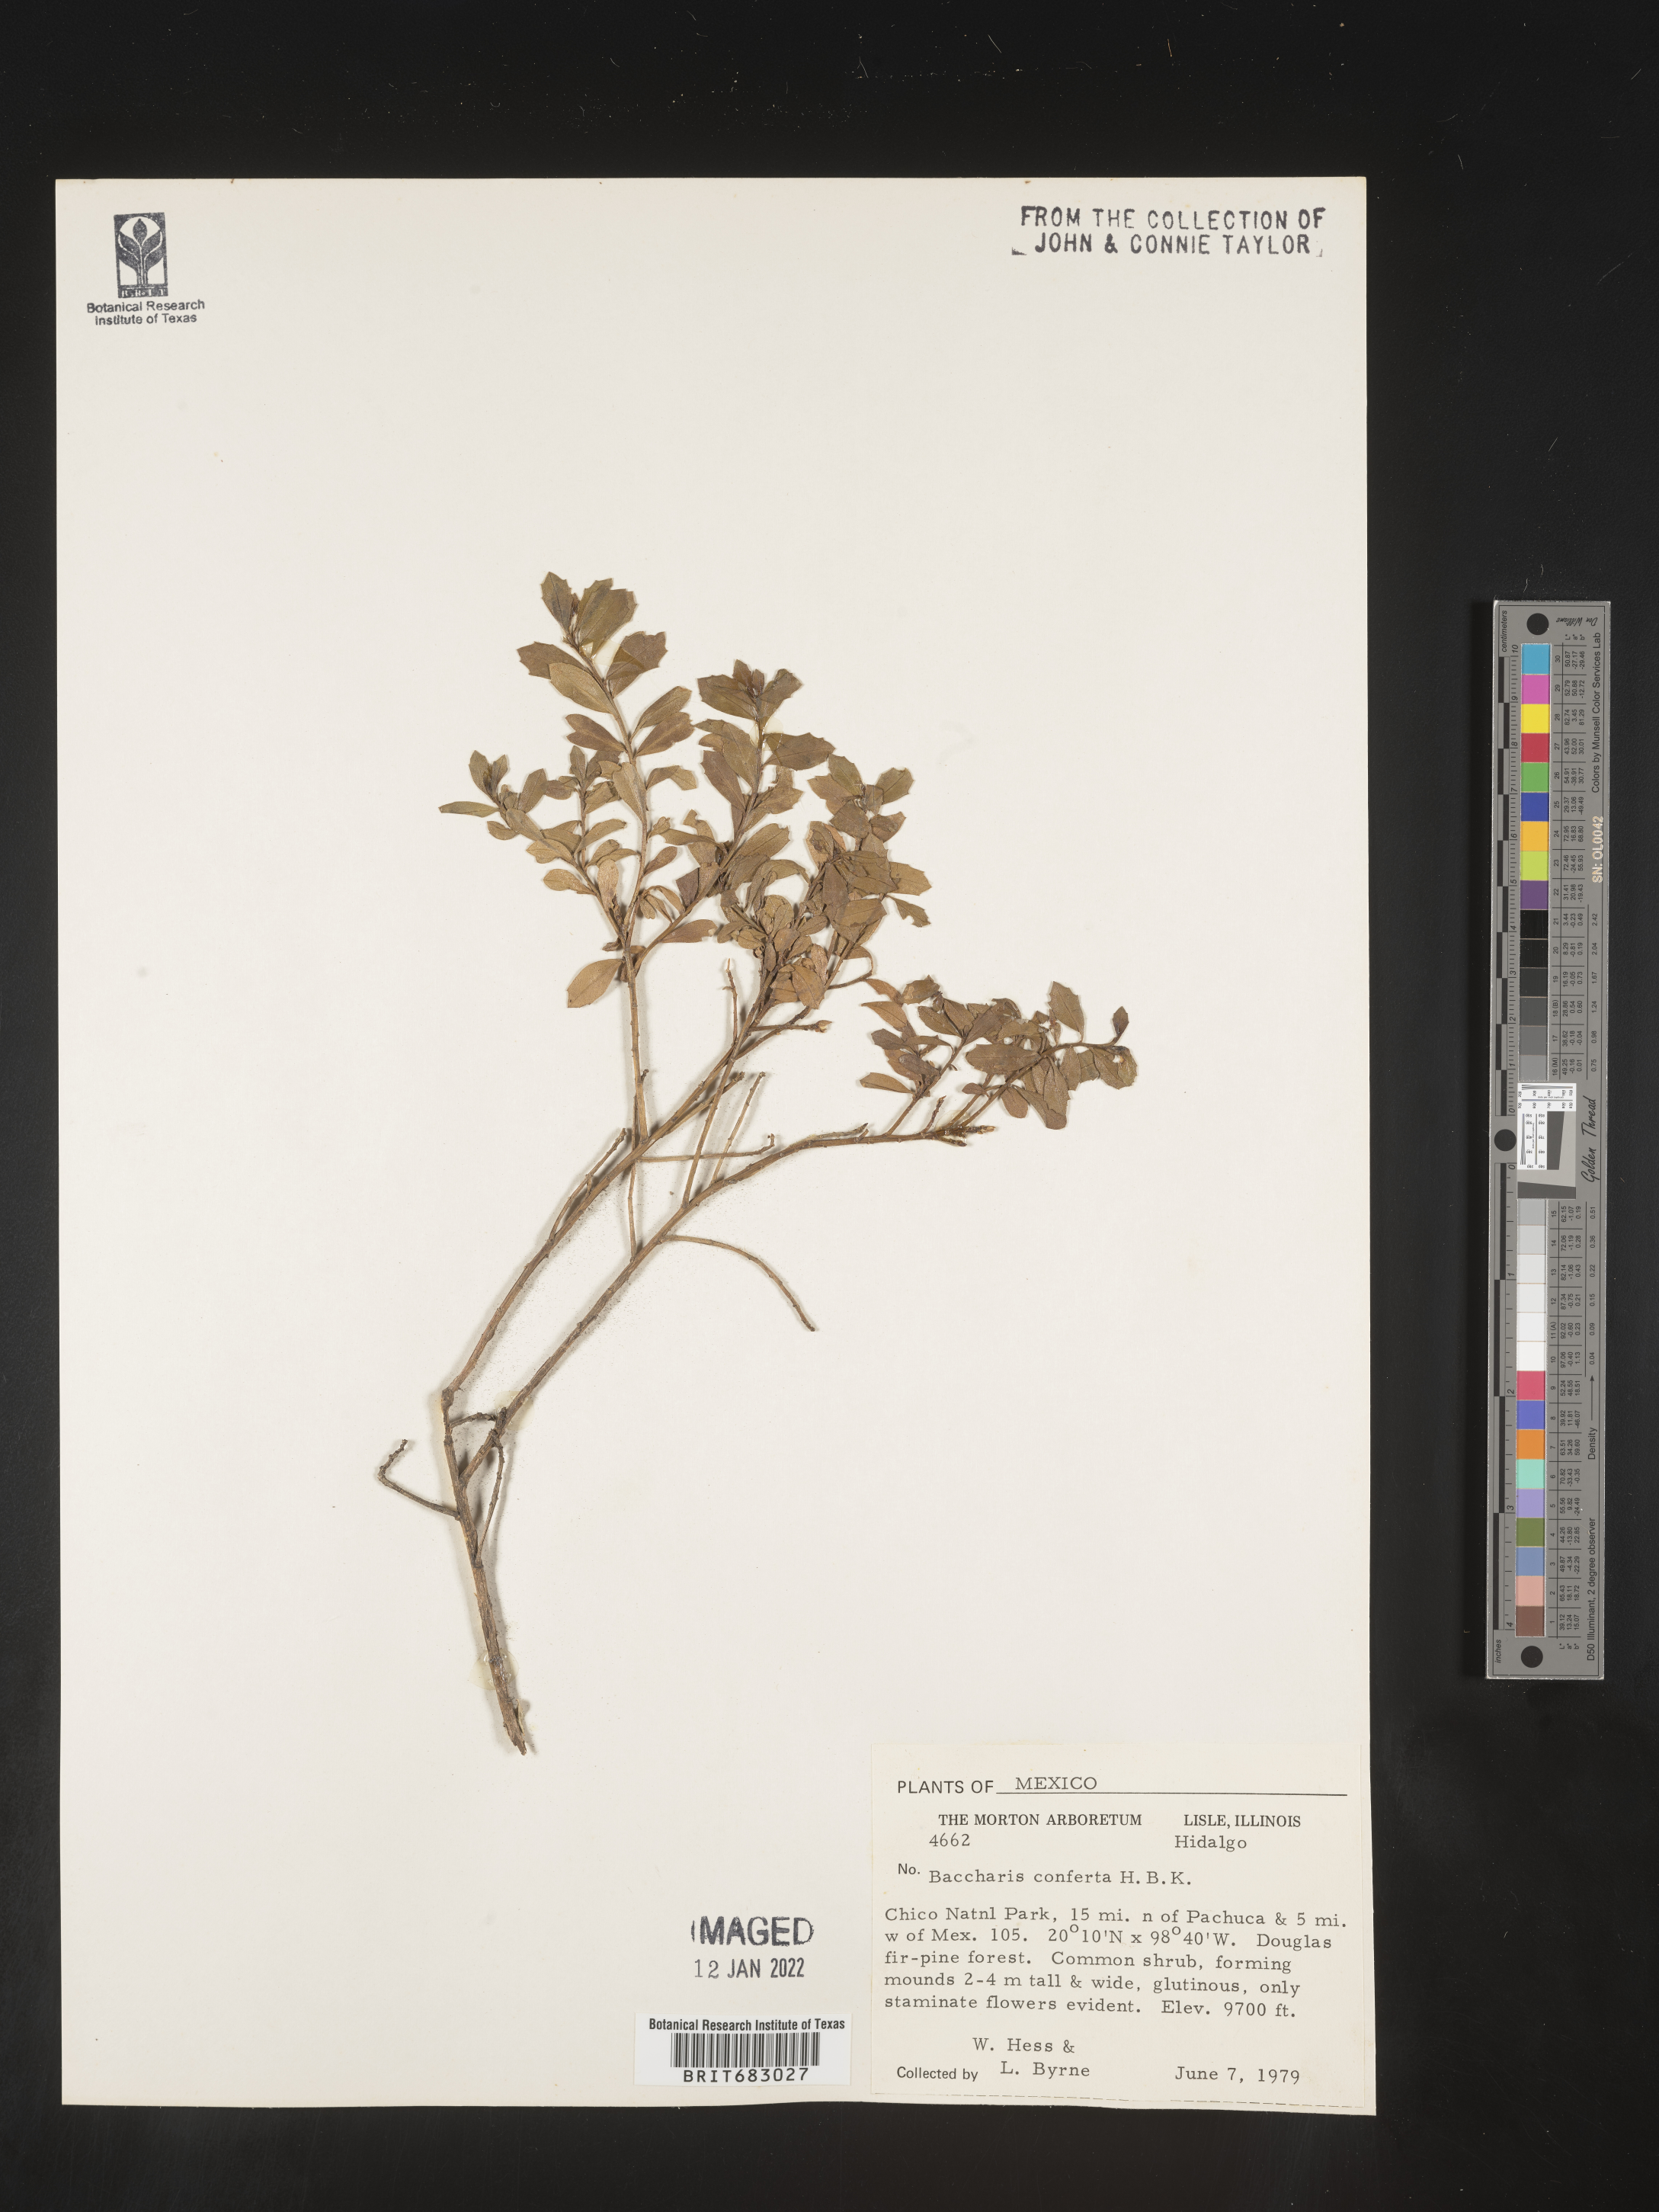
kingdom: Plantae
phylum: Tracheophyta
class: Magnoliopsida
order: Asterales
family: Asteraceae
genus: Baccharis
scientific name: Baccharis conferta
